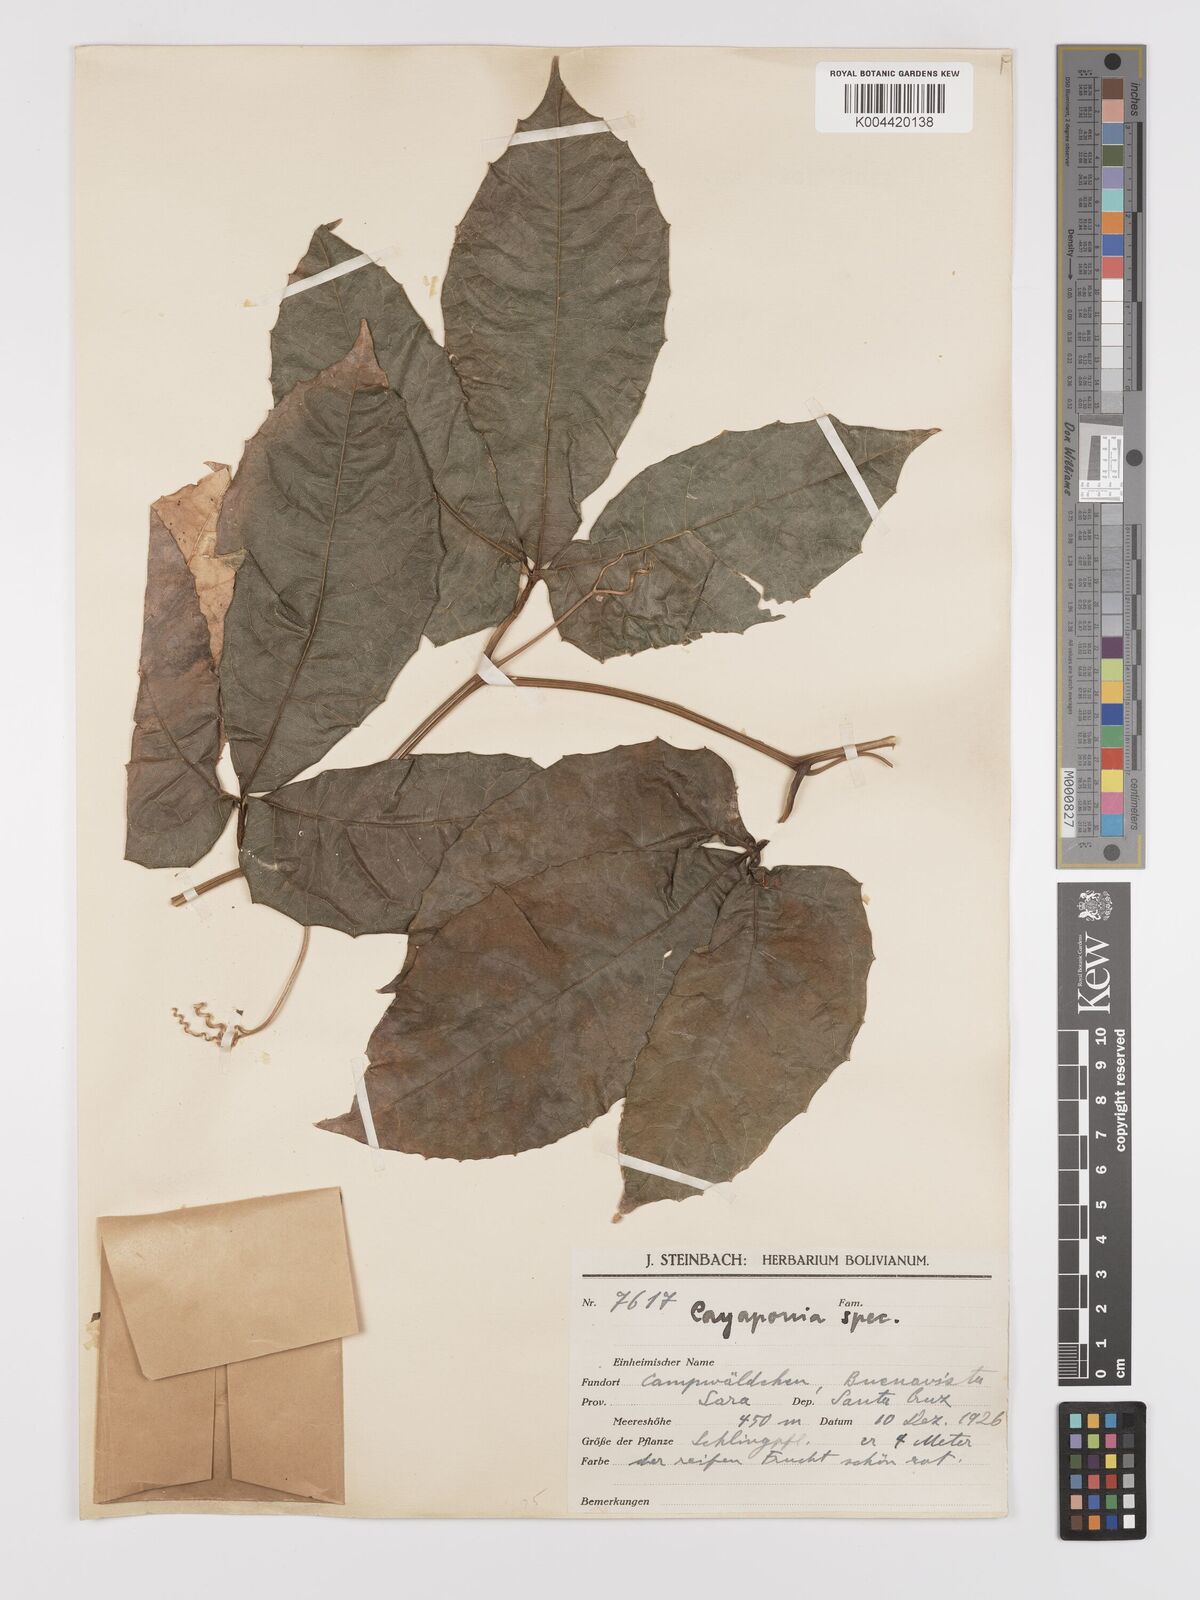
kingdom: Plantae
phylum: Tracheophyta
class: Magnoliopsida
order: Cucurbitales
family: Cucurbitaceae
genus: Cayaponia
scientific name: Cayaponia tubulosa
